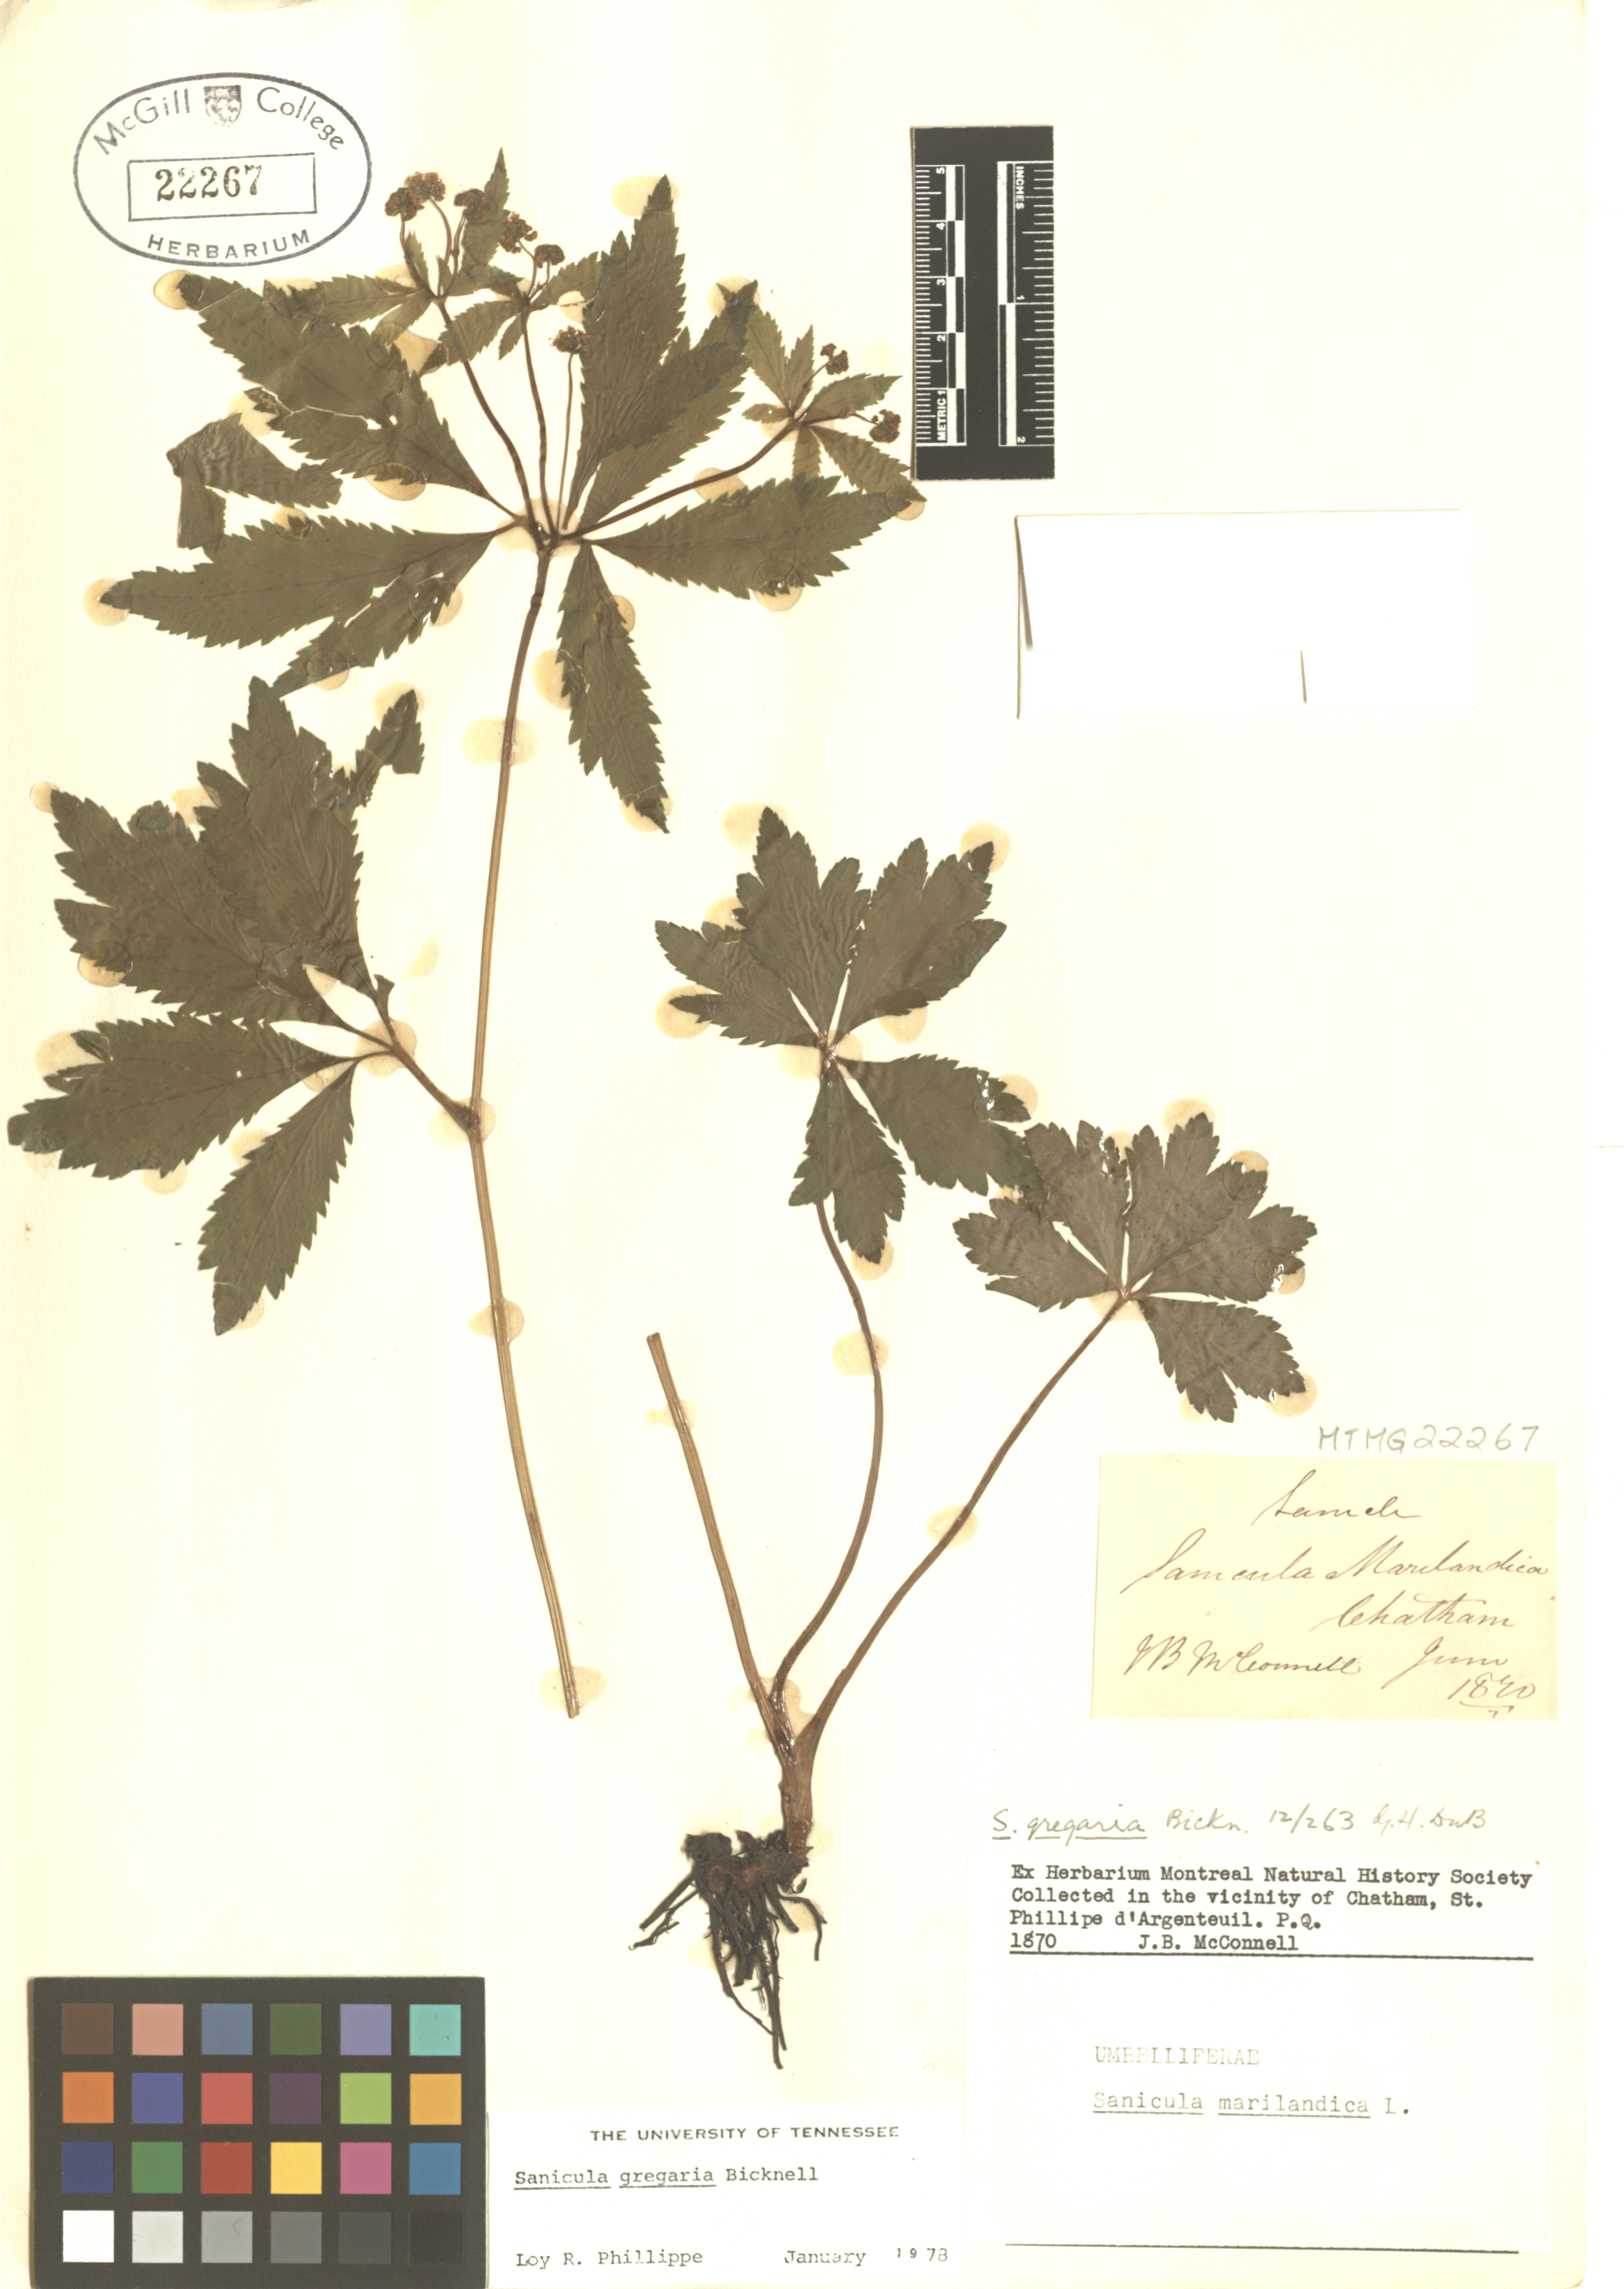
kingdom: Plantae
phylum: Tracheophyta
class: Magnoliopsida
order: Apiales
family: Apiaceae
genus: Sanicula
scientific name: Sanicula odorata
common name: Cluster sanicle
